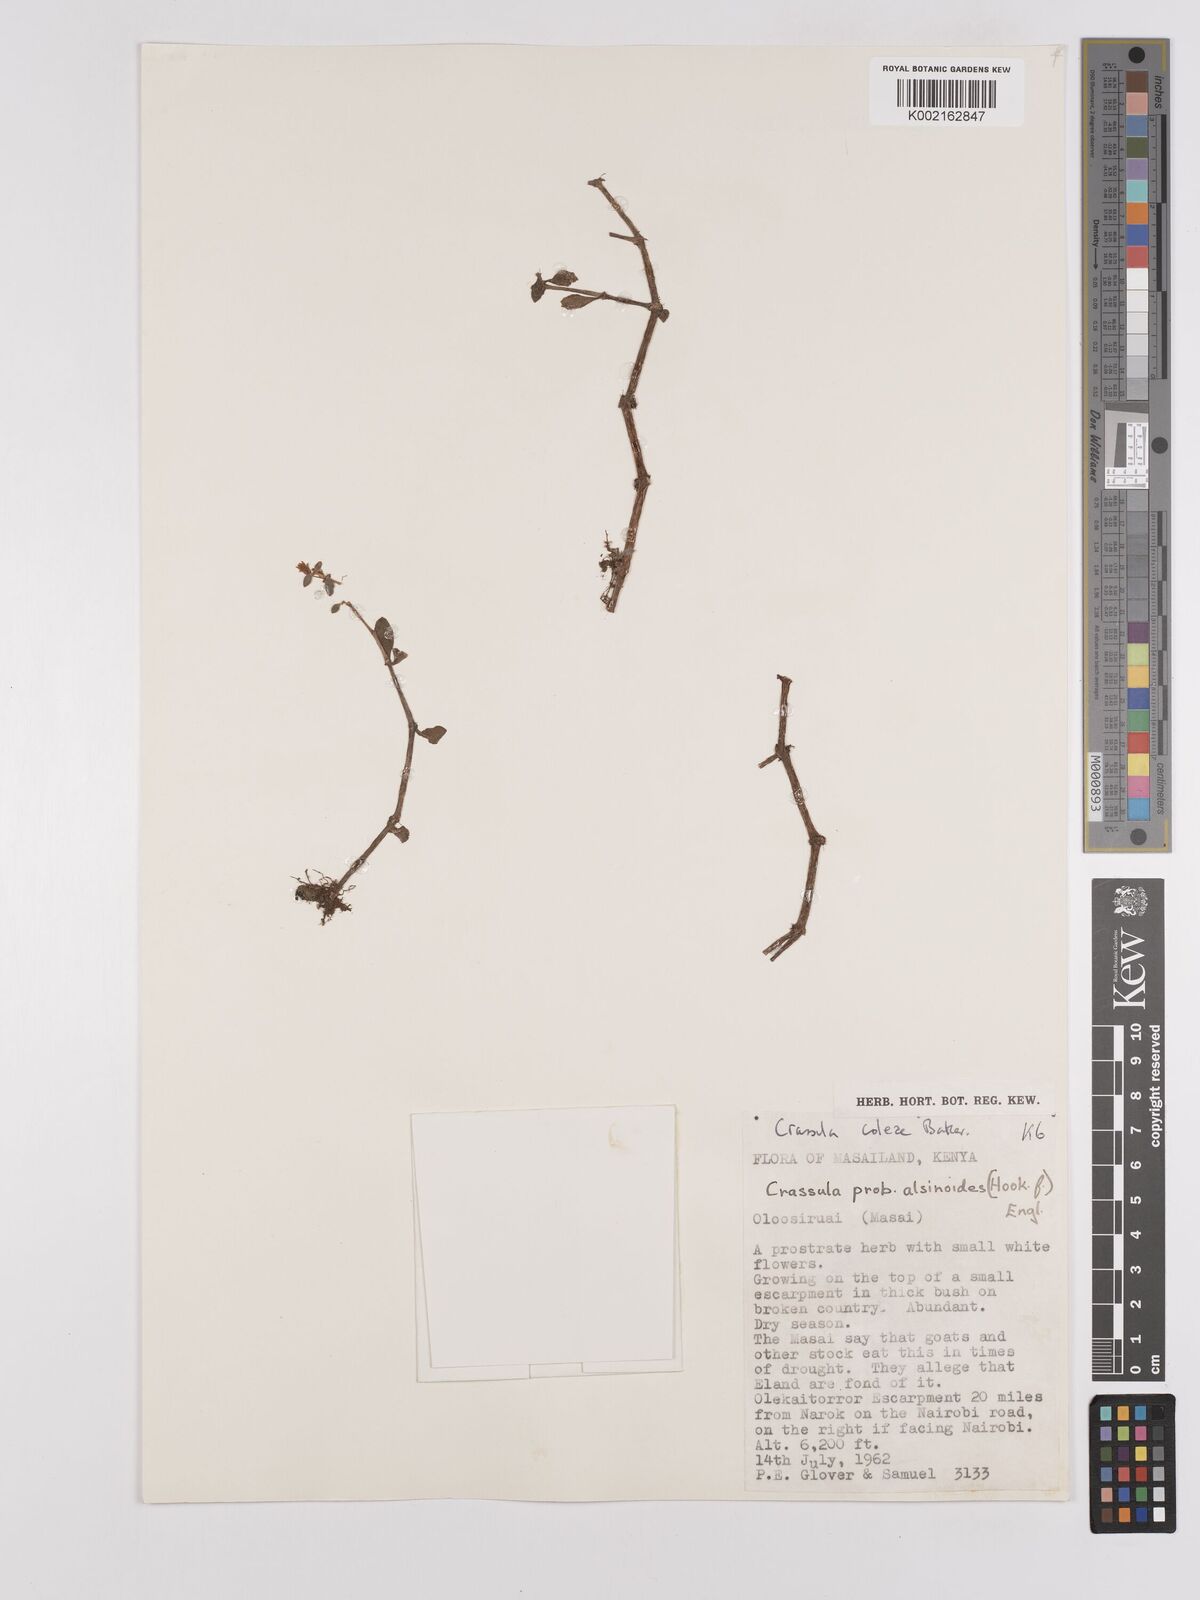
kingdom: Plantae
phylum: Tracheophyta
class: Magnoliopsida
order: Saxifragales
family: Crassulaceae
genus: Crassula
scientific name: Crassula volkensii
